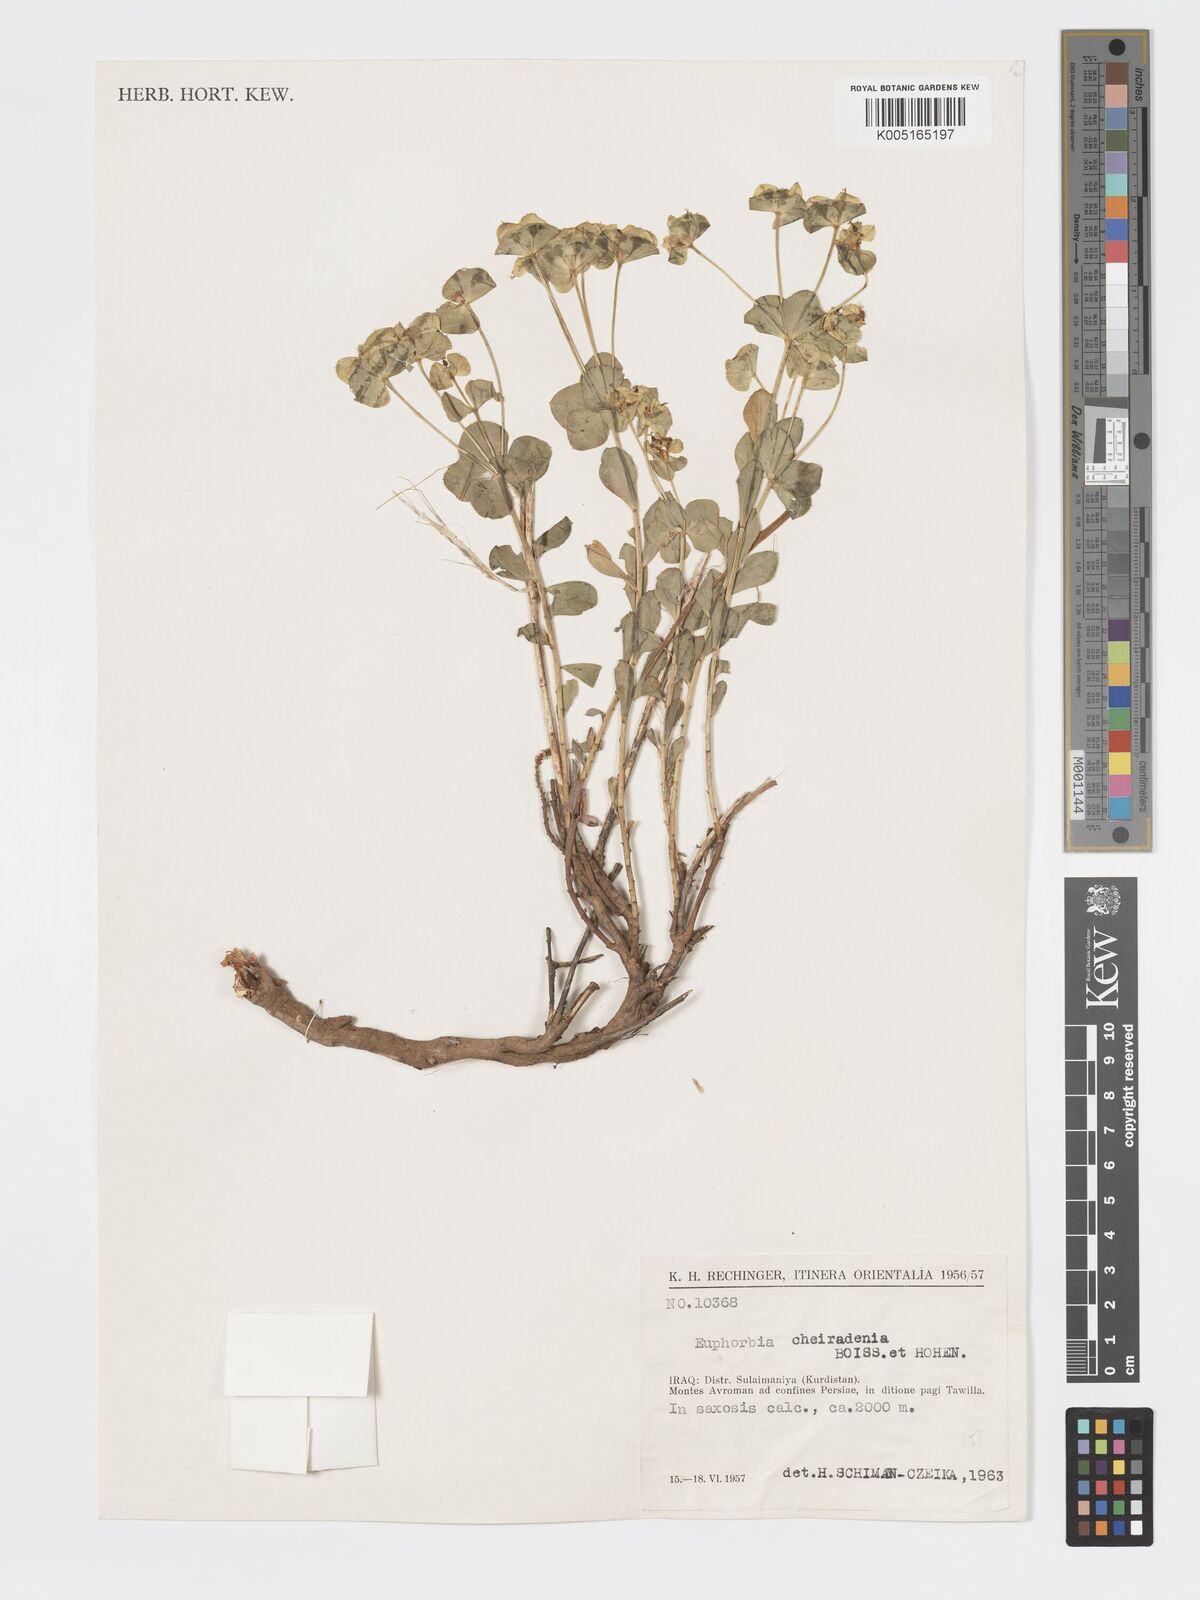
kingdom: Plantae
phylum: Tracheophyta
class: Magnoliopsida
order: Malpighiales
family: Euphorbiaceae
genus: Euphorbia
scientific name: Euphorbia cheiradenia
